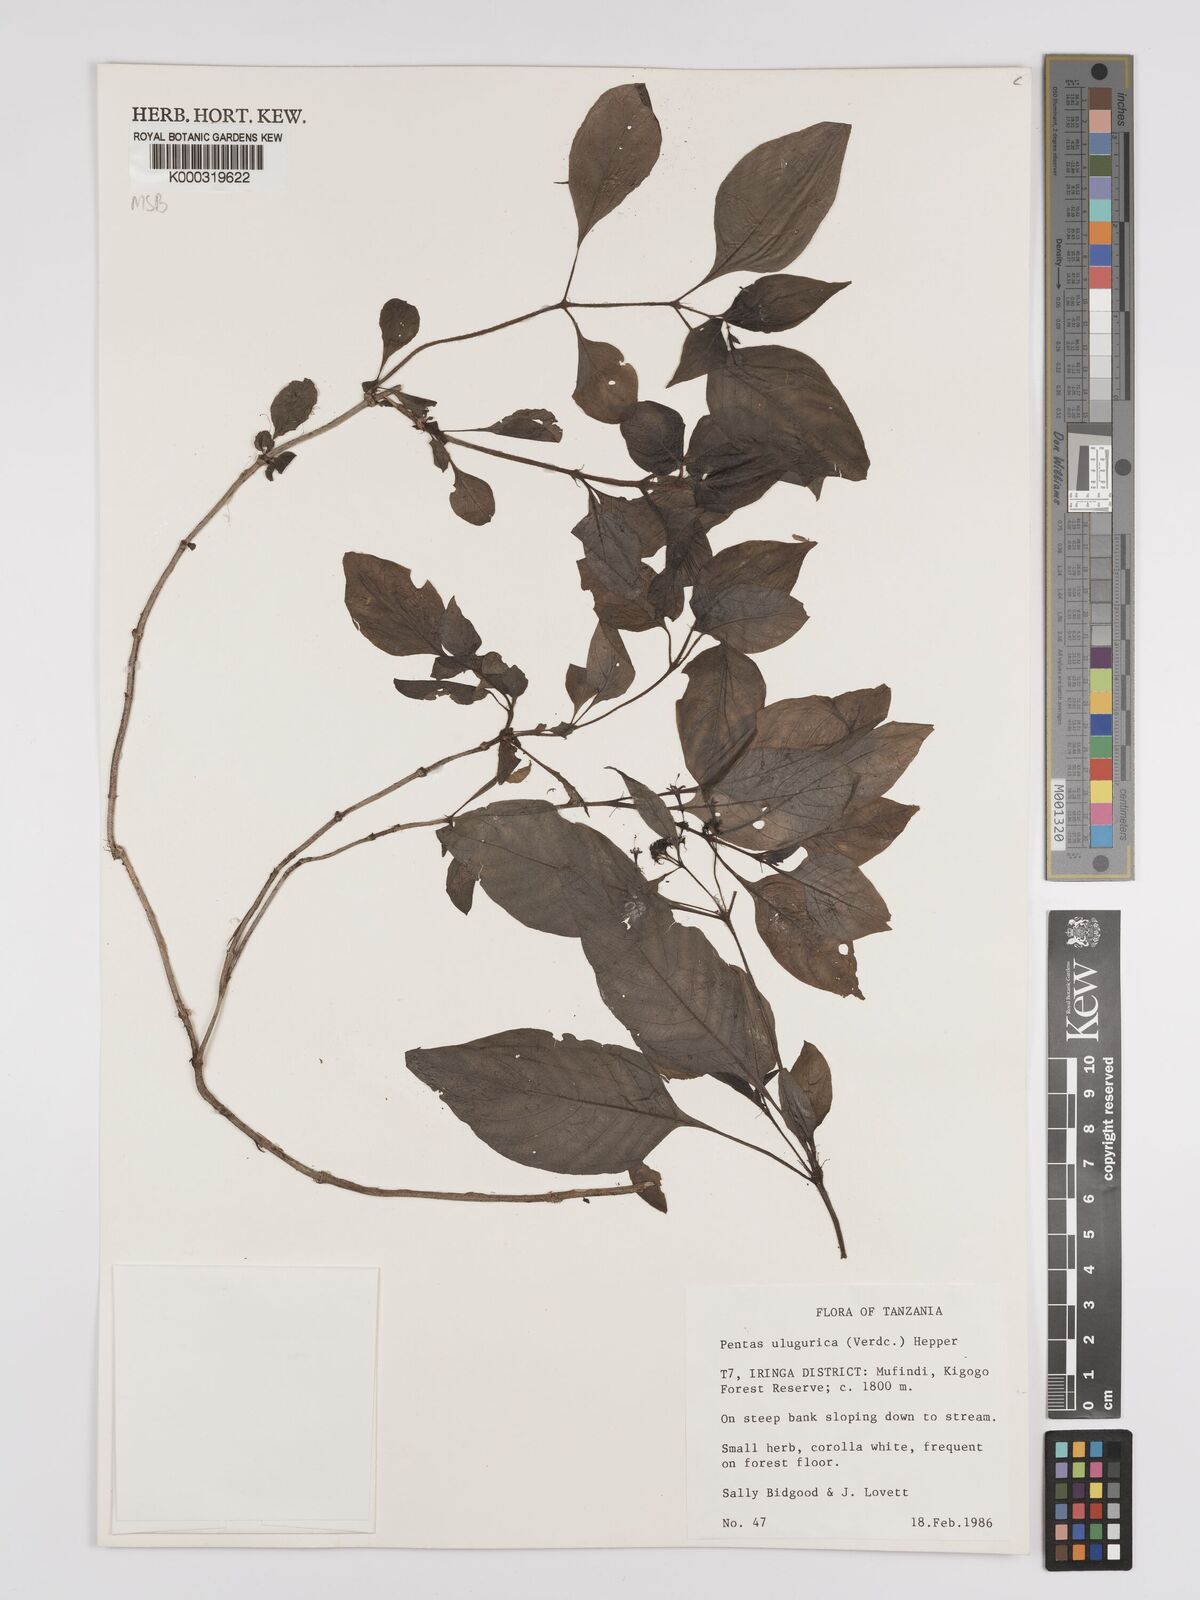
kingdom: Plantae
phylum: Tracheophyta
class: Magnoliopsida
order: Gentianales
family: Rubiaceae
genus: Phyllopentas
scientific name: Phyllopentas ulugurica
